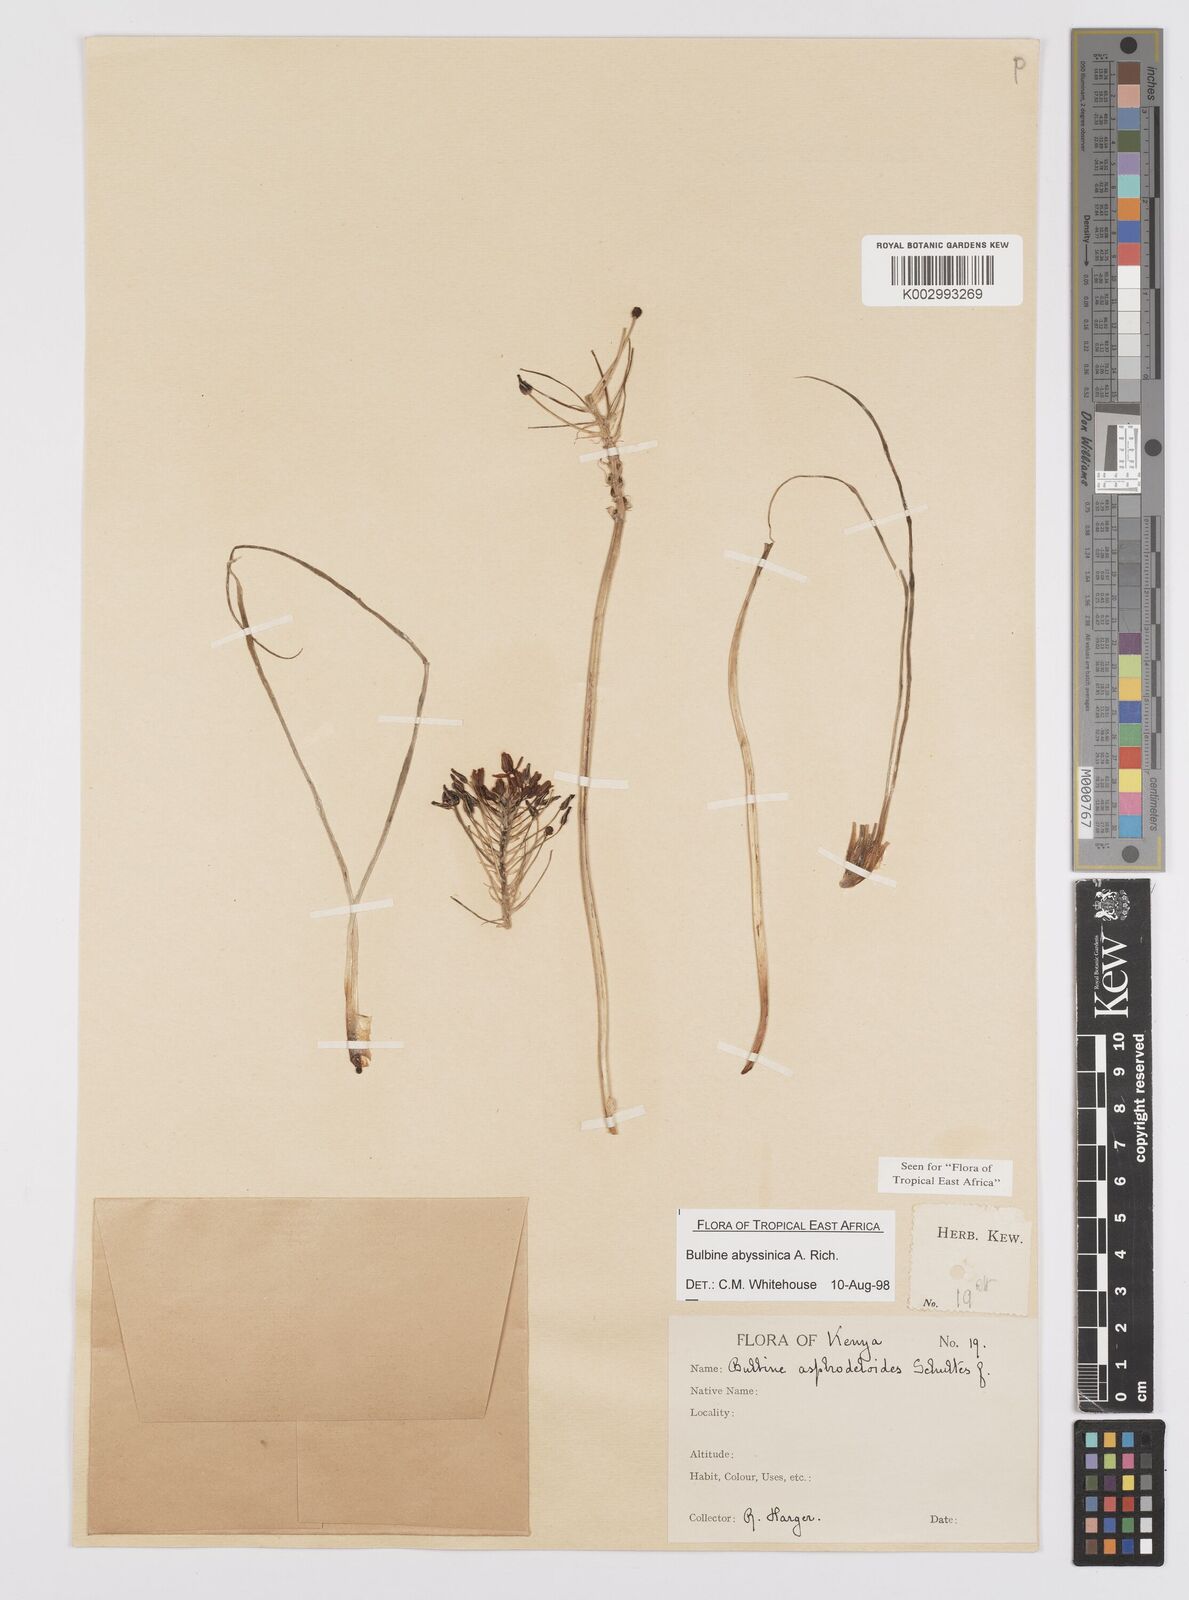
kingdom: Plantae
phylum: Tracheophyta
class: Liliopsida
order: Asparagales
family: Asphodelaceae
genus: Bulbine
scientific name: Bulbine abyssinica
